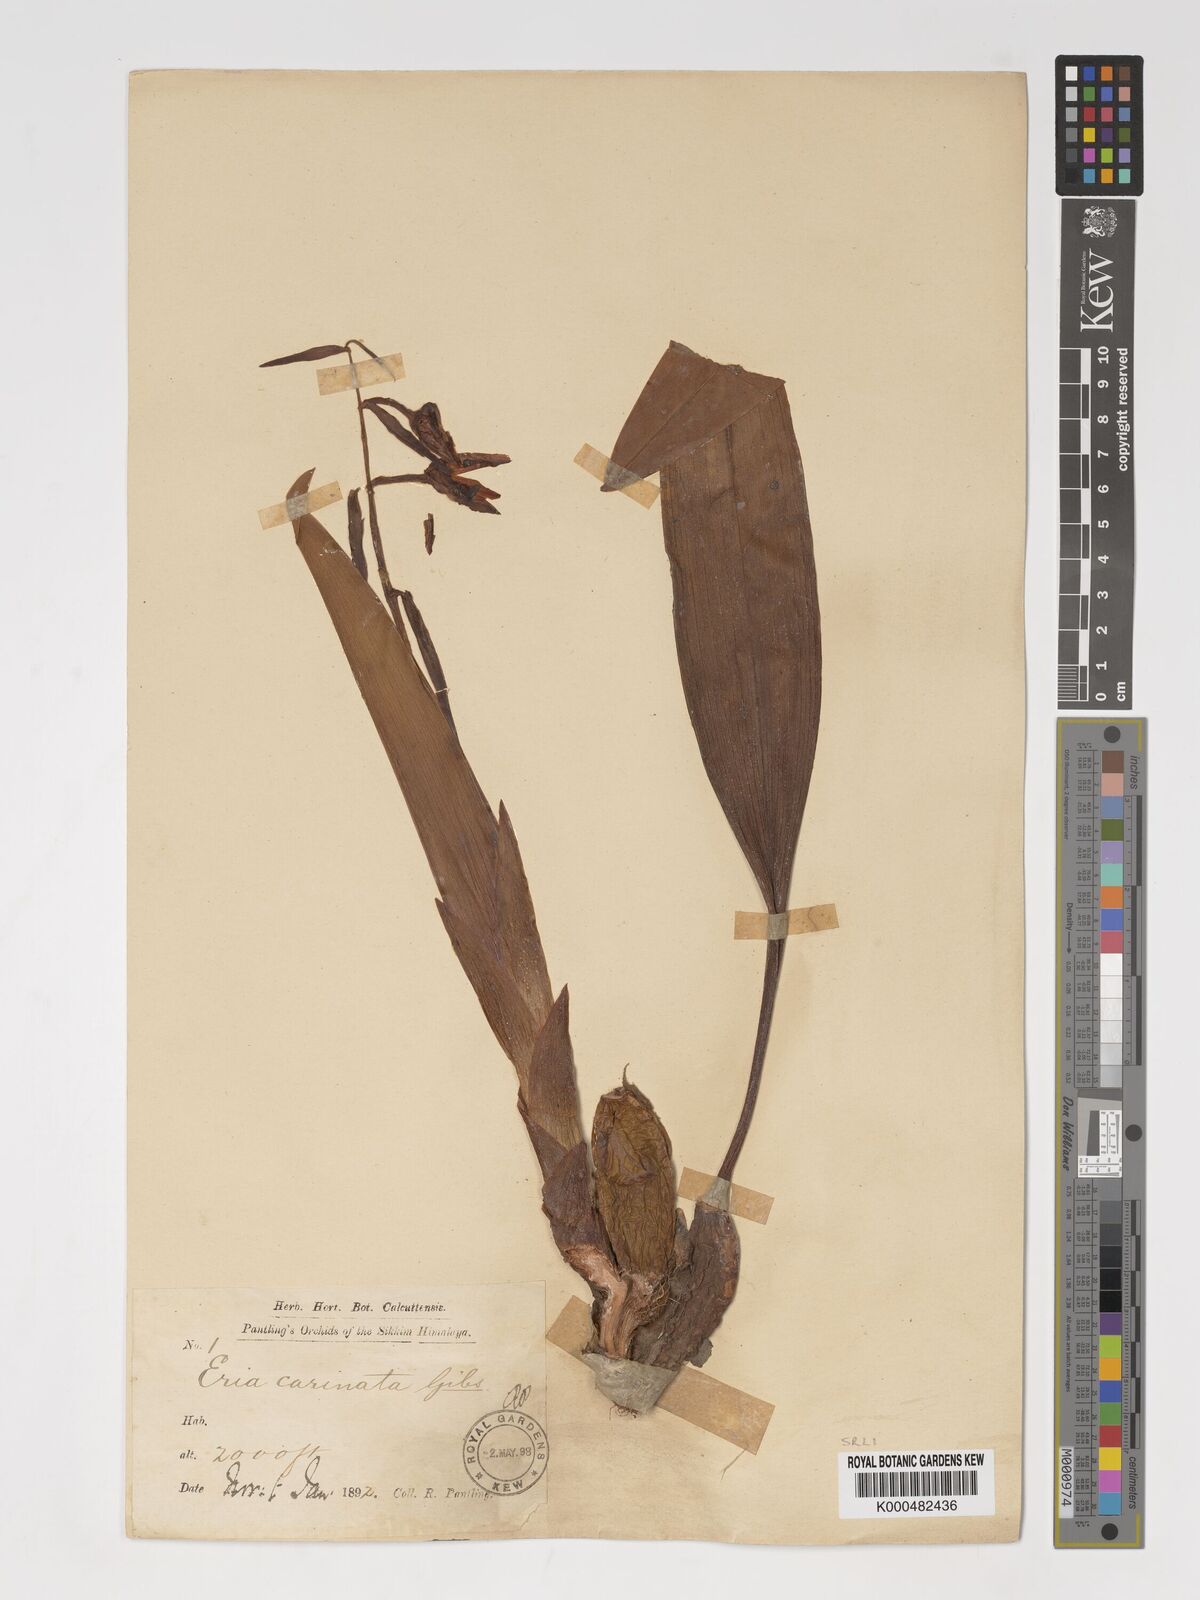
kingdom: Plantae
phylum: Tracheophyta
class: Liliopsida
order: Asparagales
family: Orchidaceae
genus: Eria
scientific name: Eria
